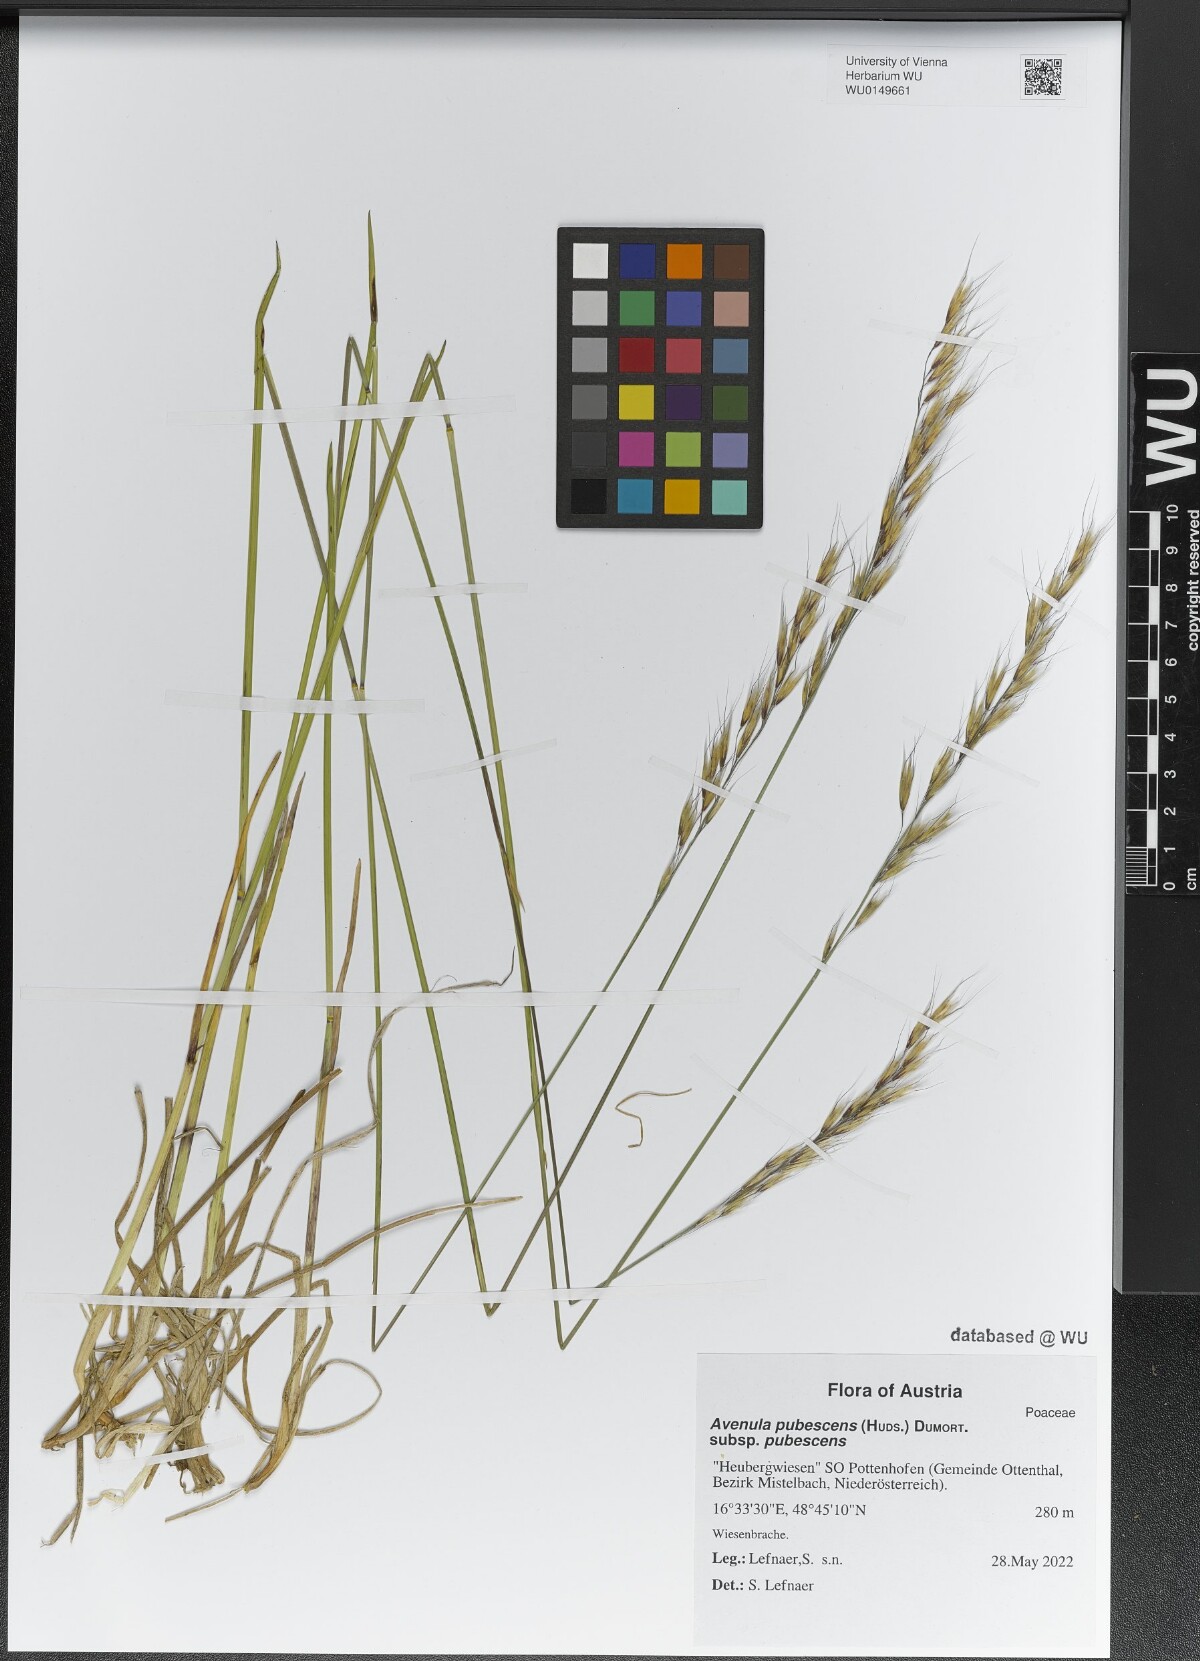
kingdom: Plantae
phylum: Tracheophyta
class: Liliopsida
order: Poales
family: Poaceae
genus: Avenula
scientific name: Avenula pubescens
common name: Downy alpine oatgrass
